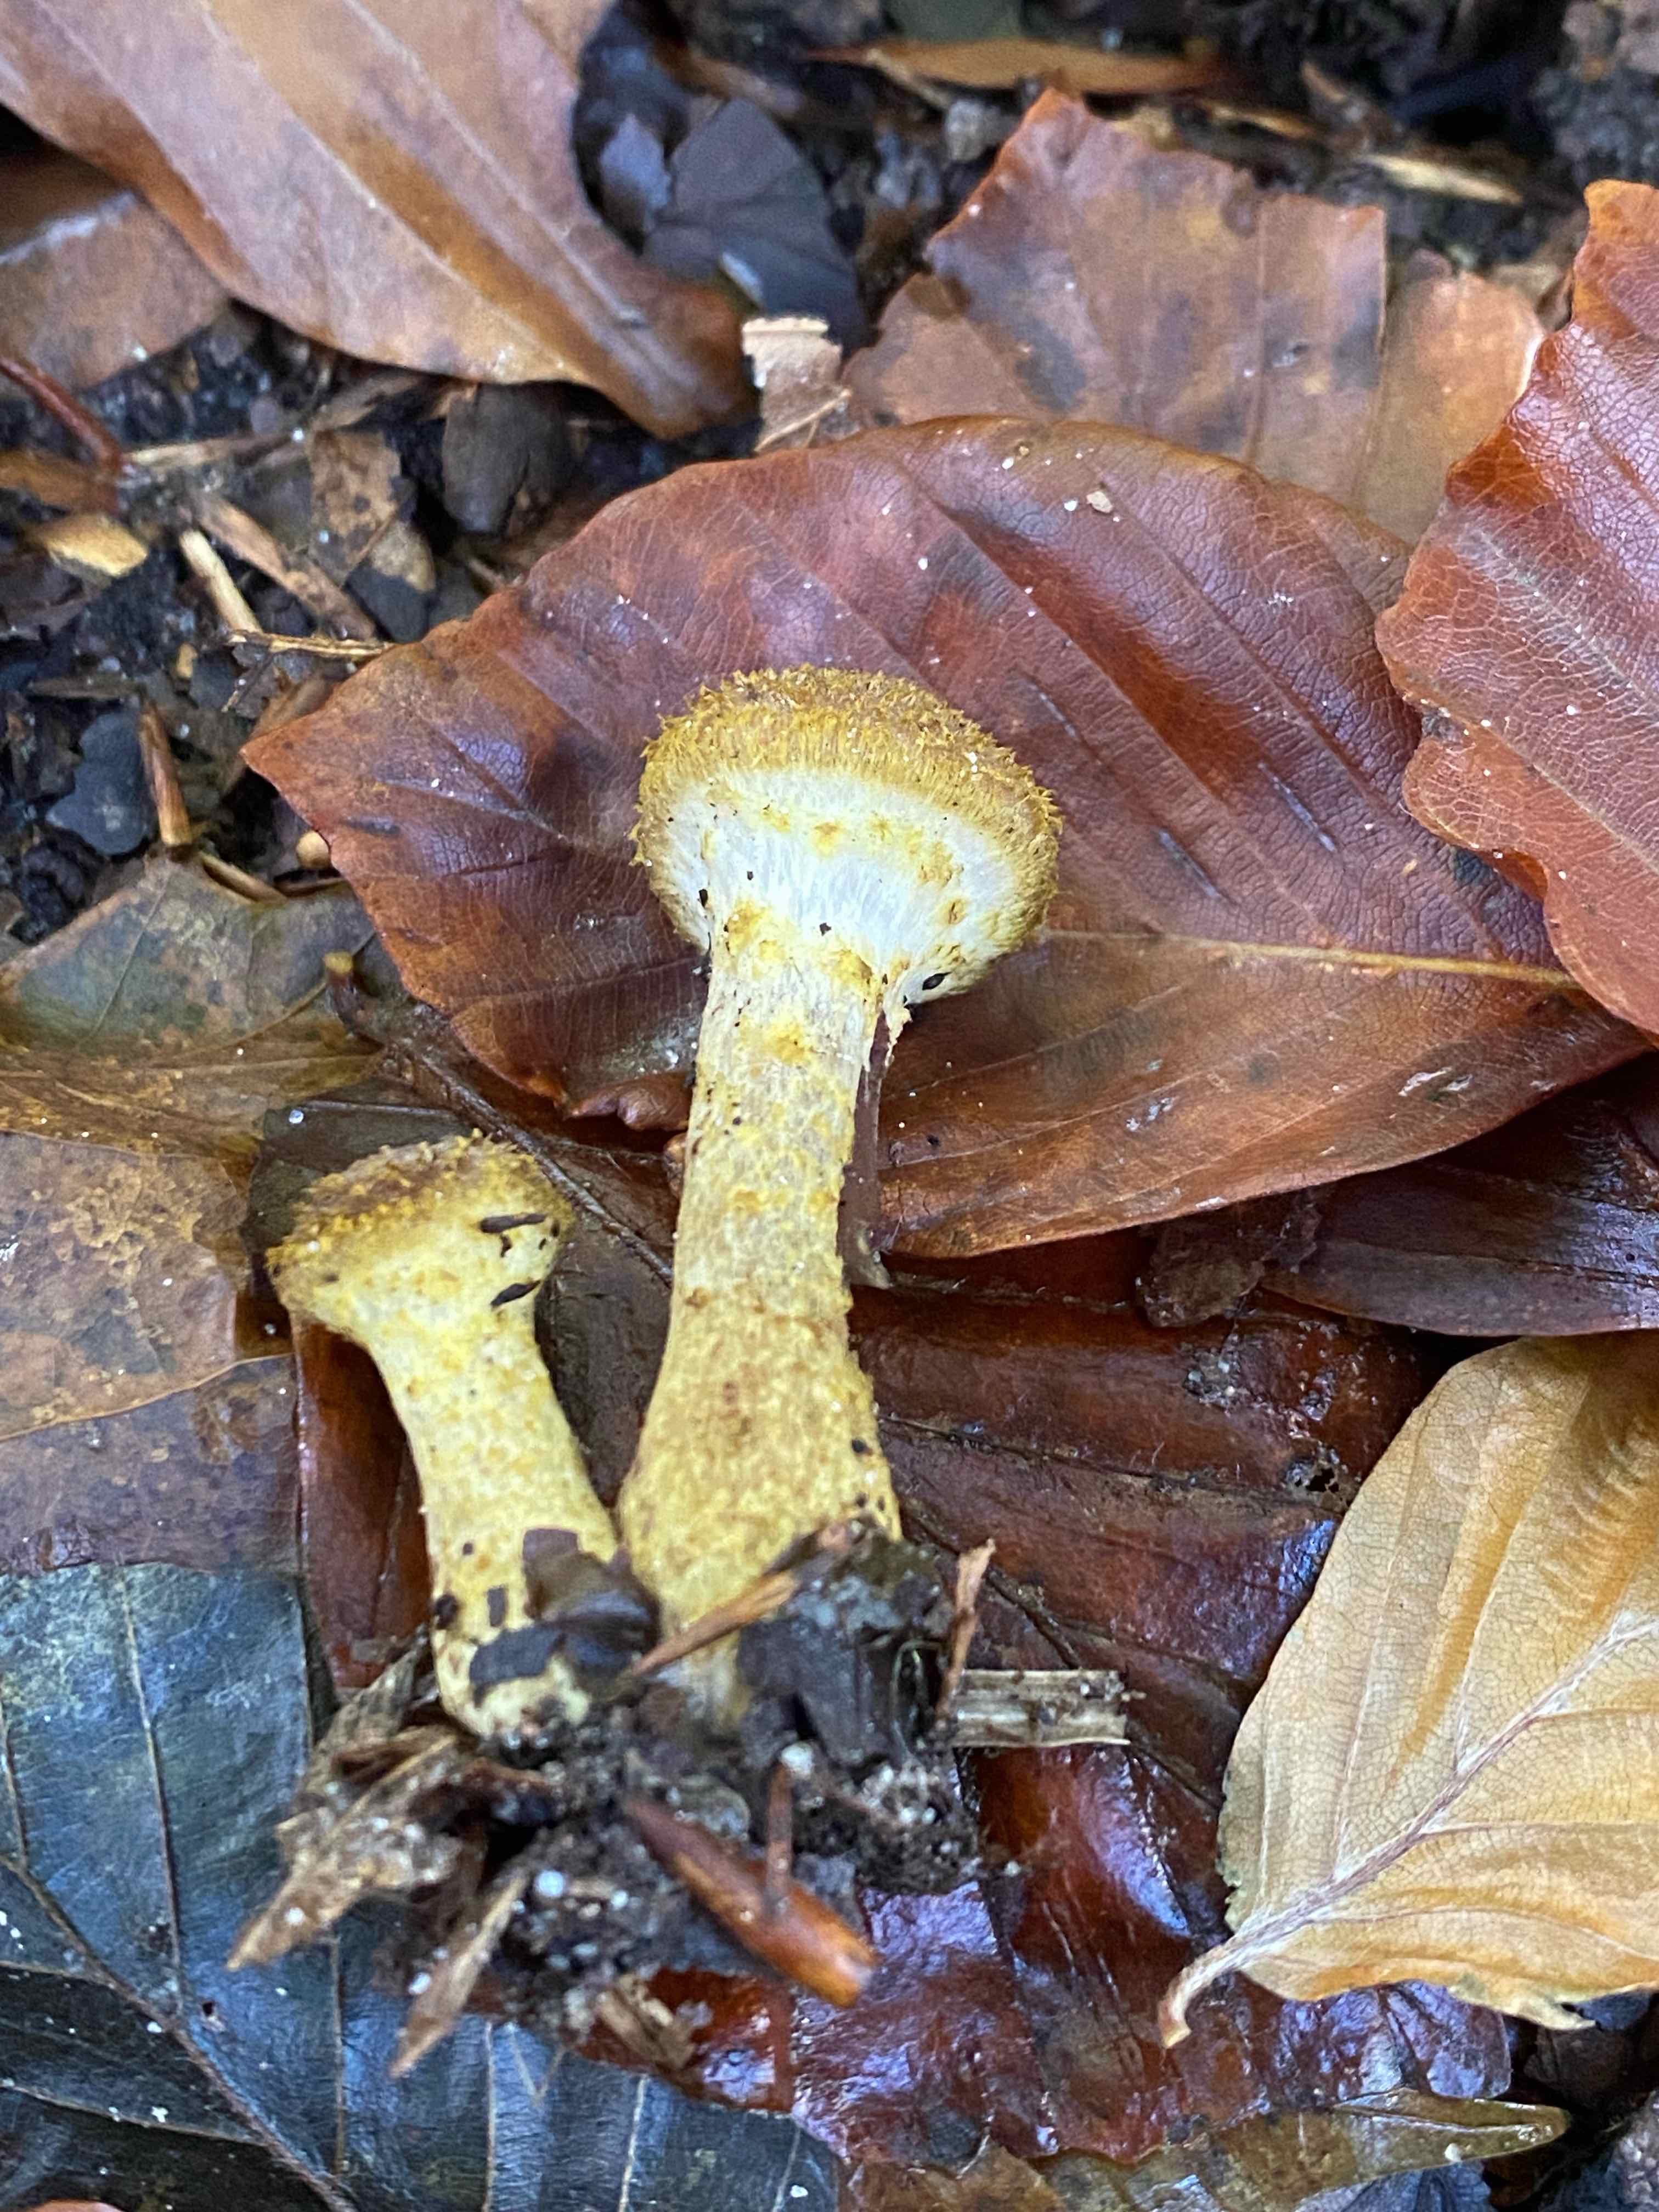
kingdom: Fungi
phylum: Basidiomycota
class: Agaricomycetes
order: Agaricales
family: Physalacriaceae
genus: Armillaria
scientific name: Armillaria lutea
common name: køllestokket honningsvamp
